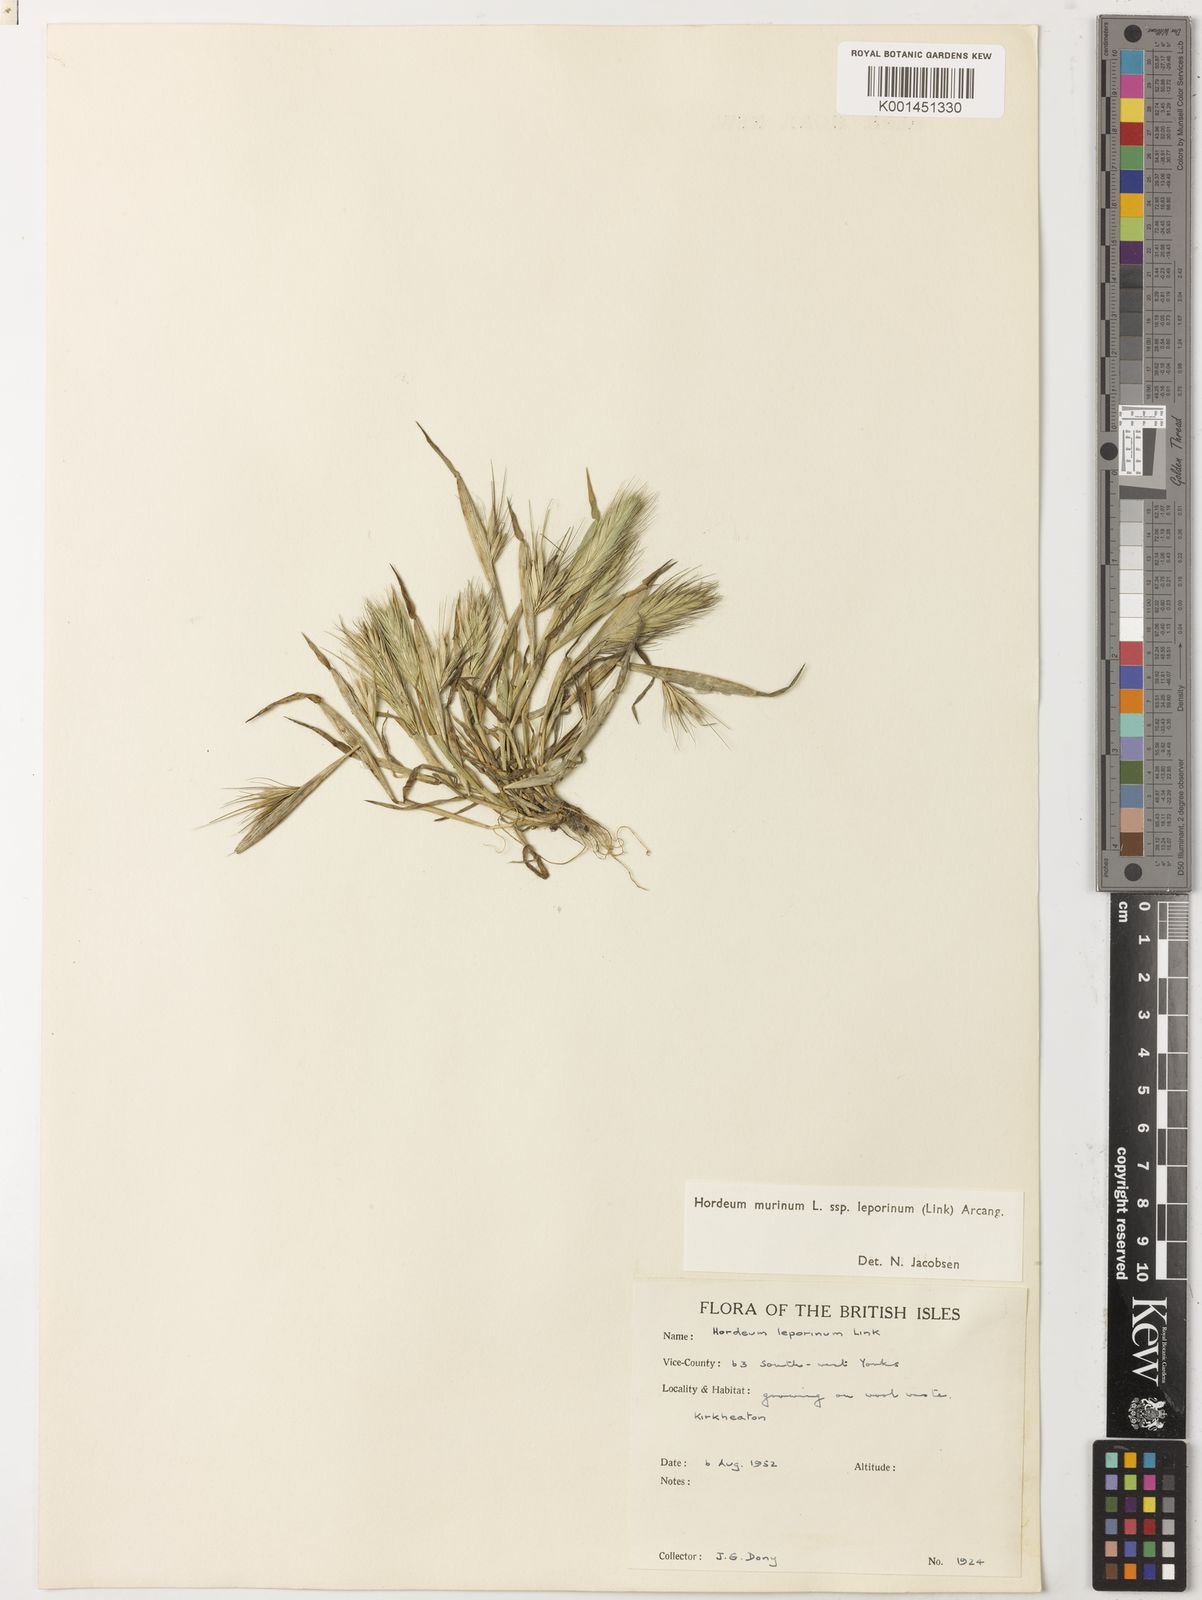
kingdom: Plantae
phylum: Tracheophyta
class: Liliopsida
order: Poales
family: Poaceae
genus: Hordeum
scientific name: Hordeum murinum
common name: Wall barley
